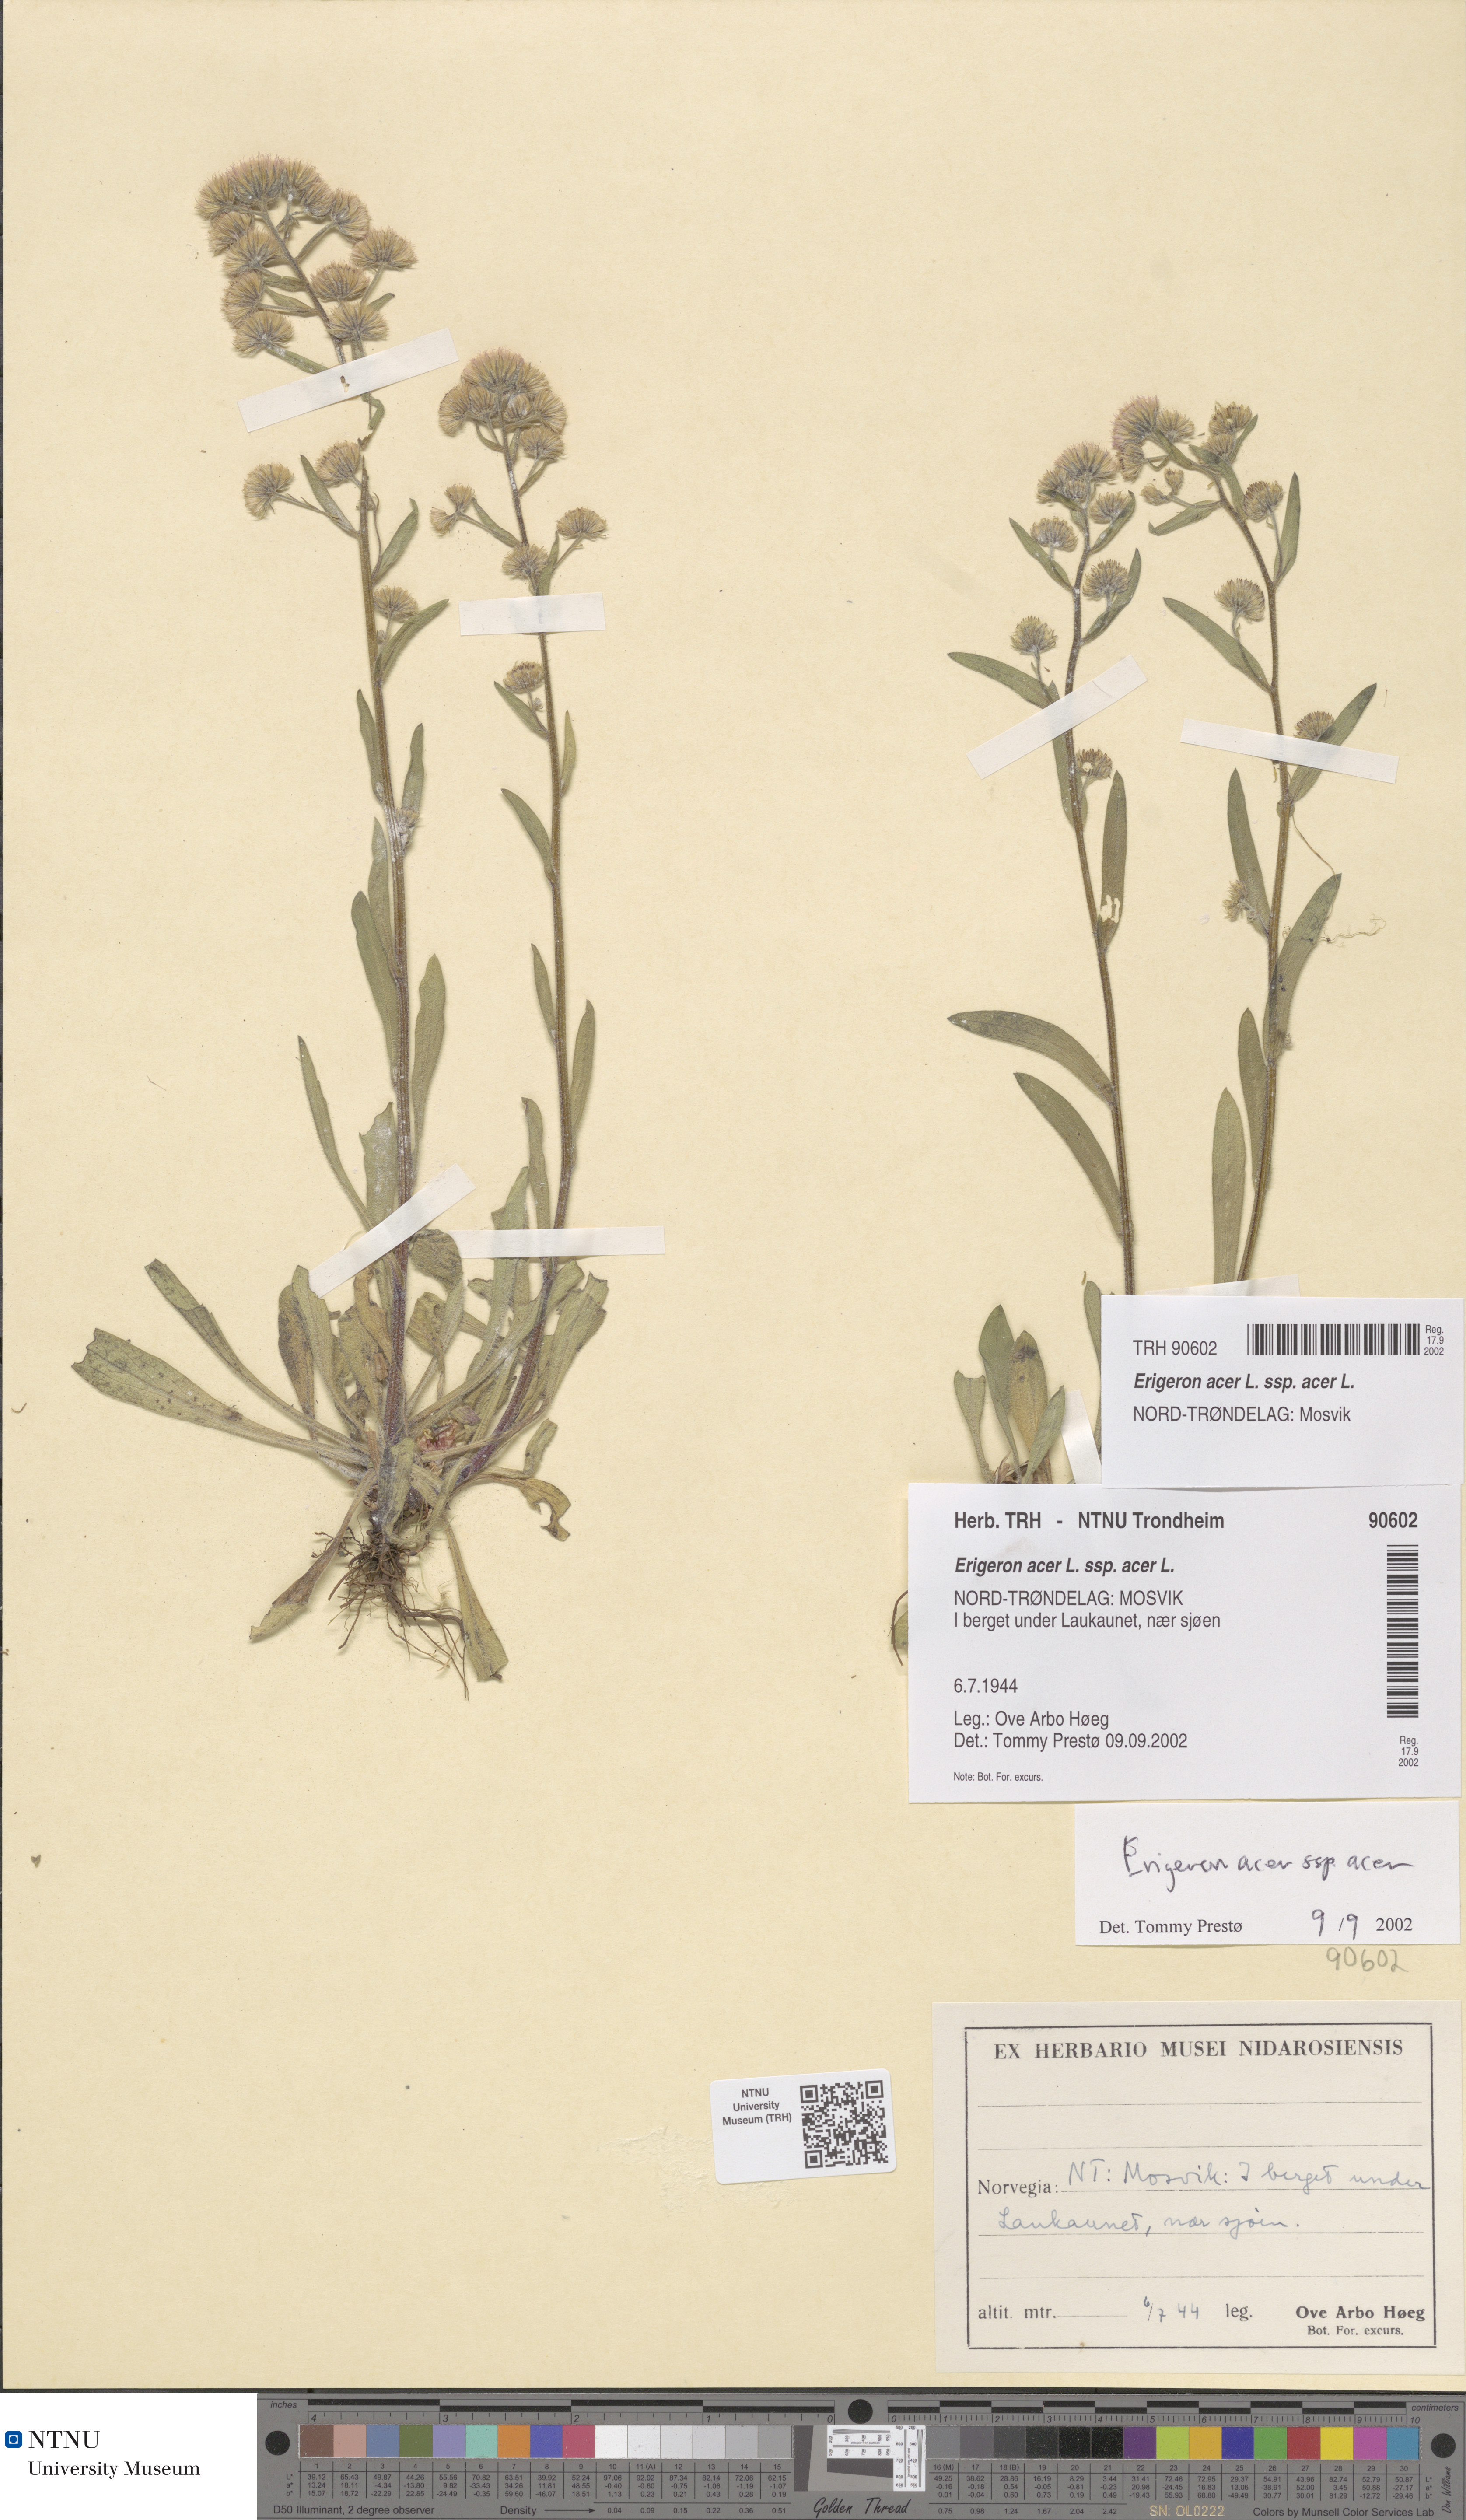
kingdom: Plantae
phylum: Tracheophyta
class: Magnoliopsida
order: Asterales
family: Asteraceae
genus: Erigeron
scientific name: Erigeron acris
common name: Blue fleabane
